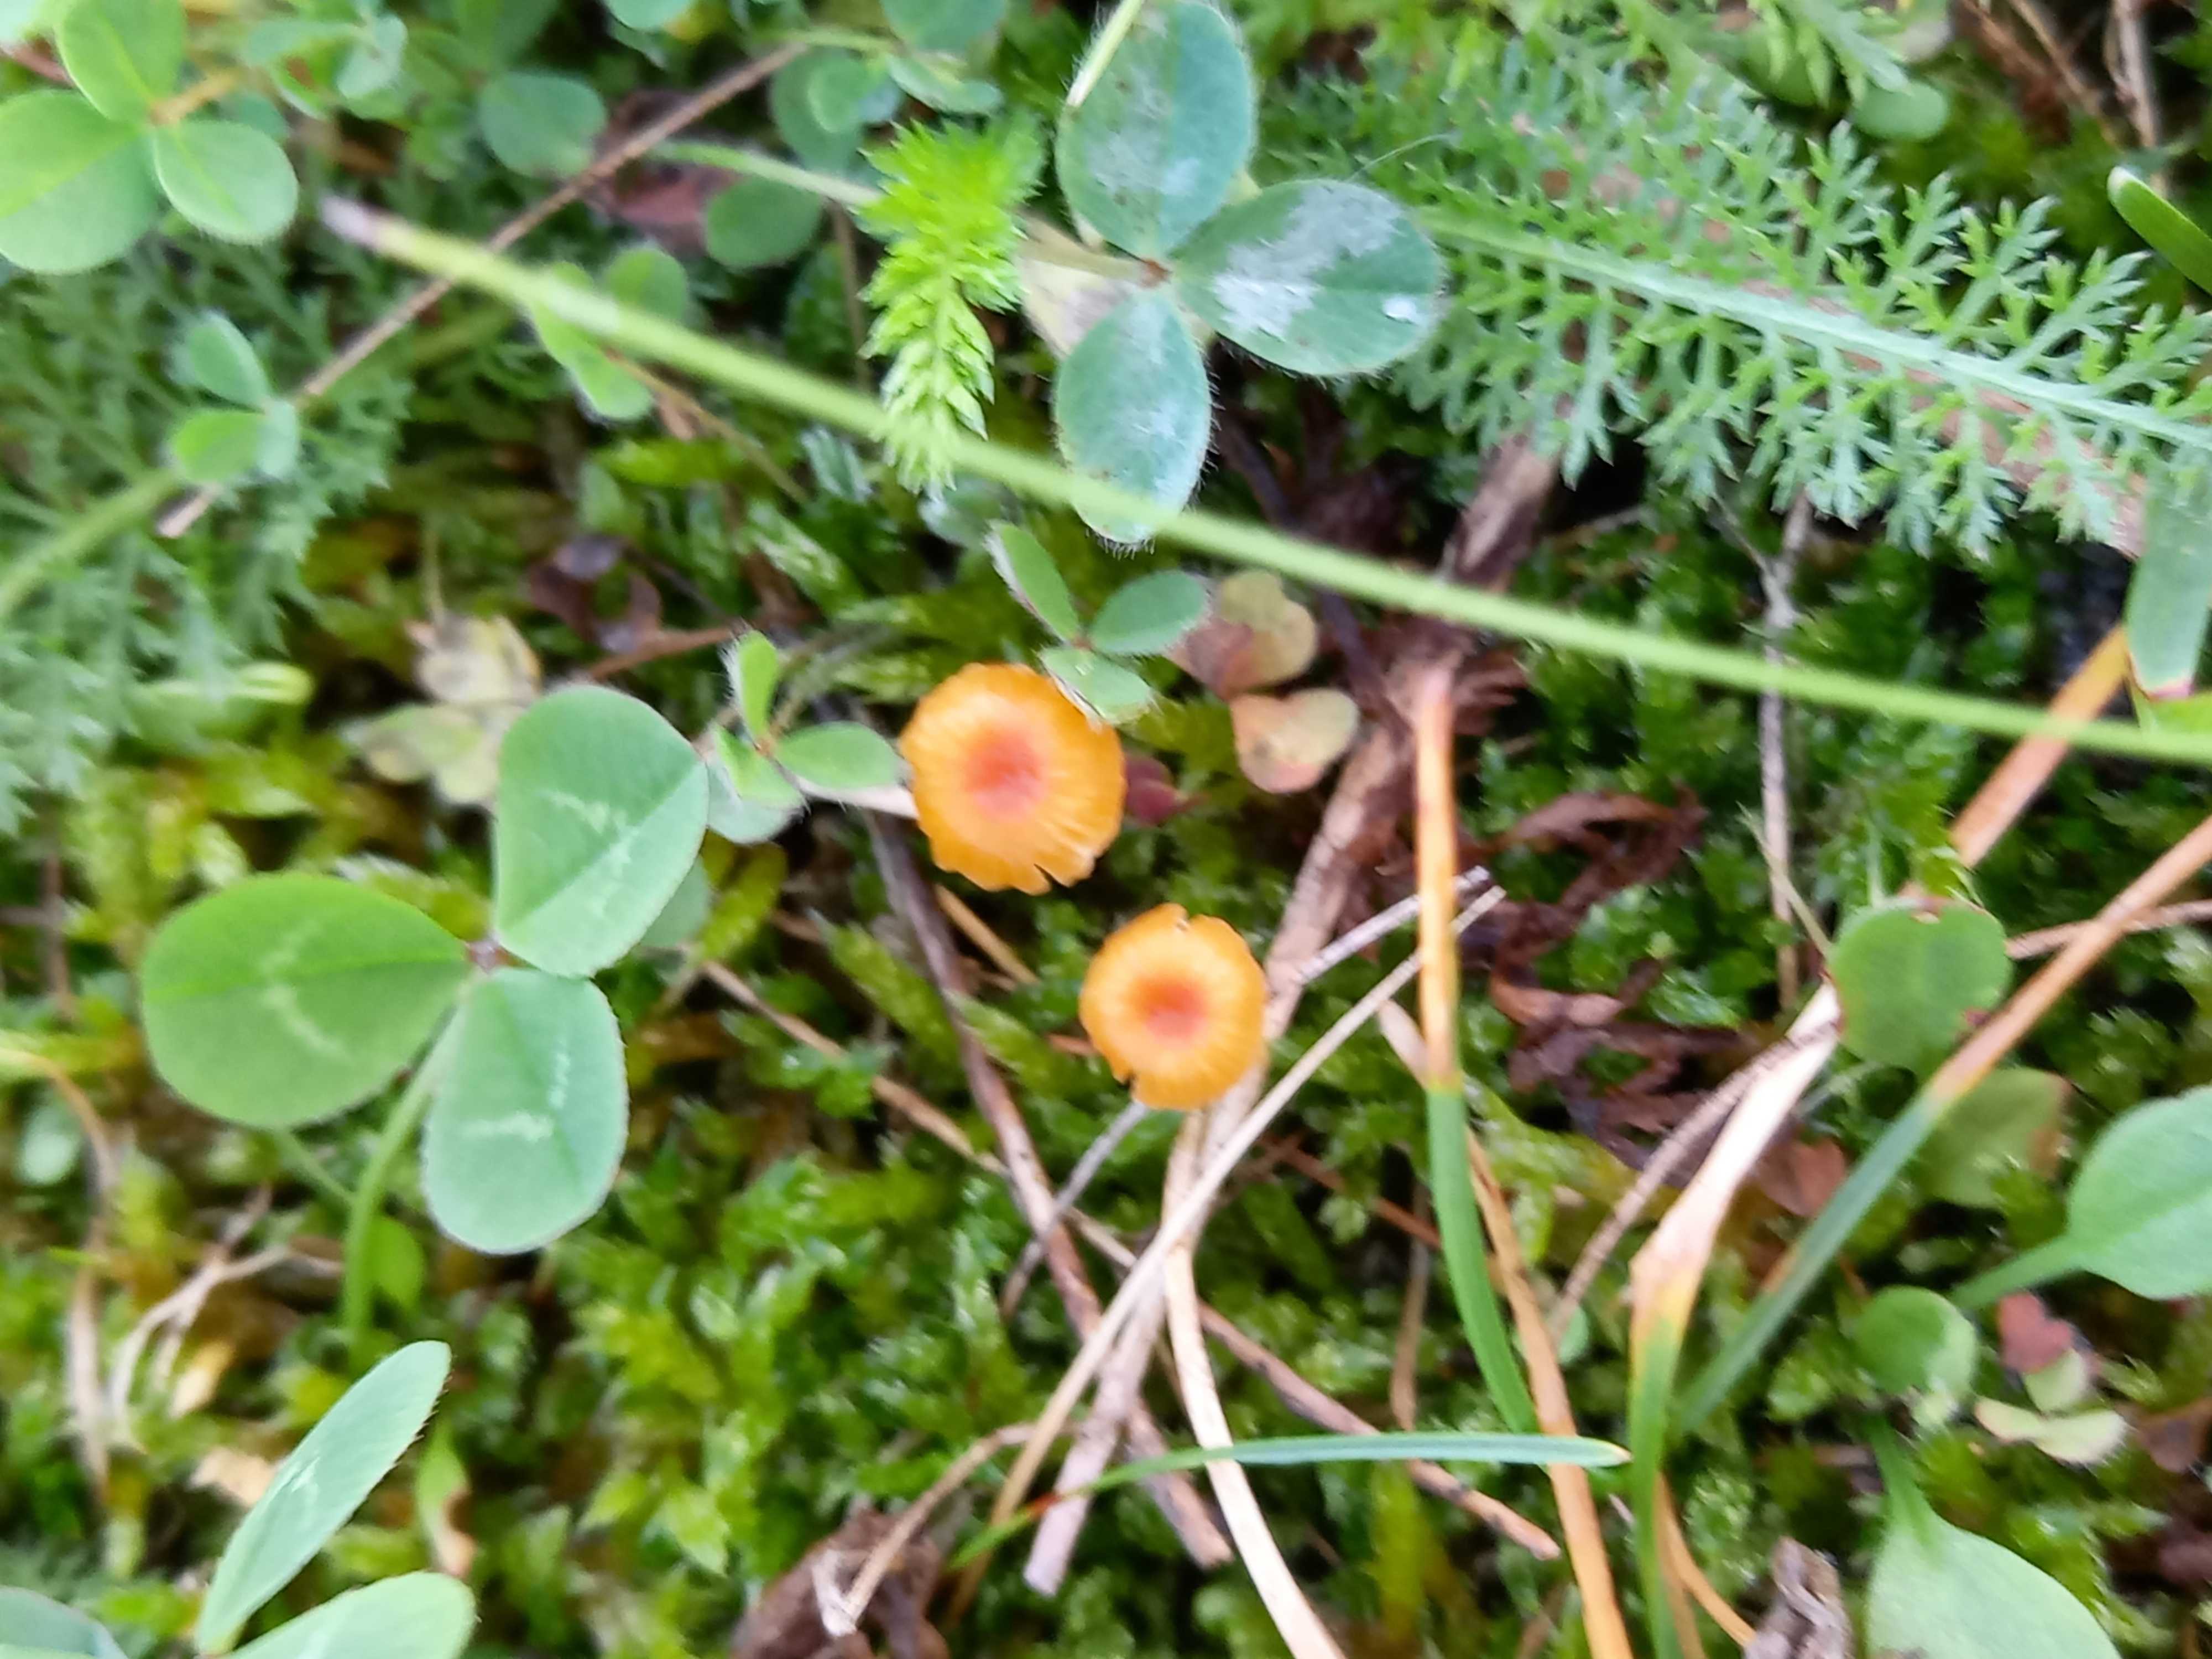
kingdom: Fungi
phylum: Basidiomycota
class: Agaricomycetes
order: Hymenochaetales
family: Rickenellaceae
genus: Rickenella
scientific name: Rickenella fibula
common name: orange mosnavlehat
